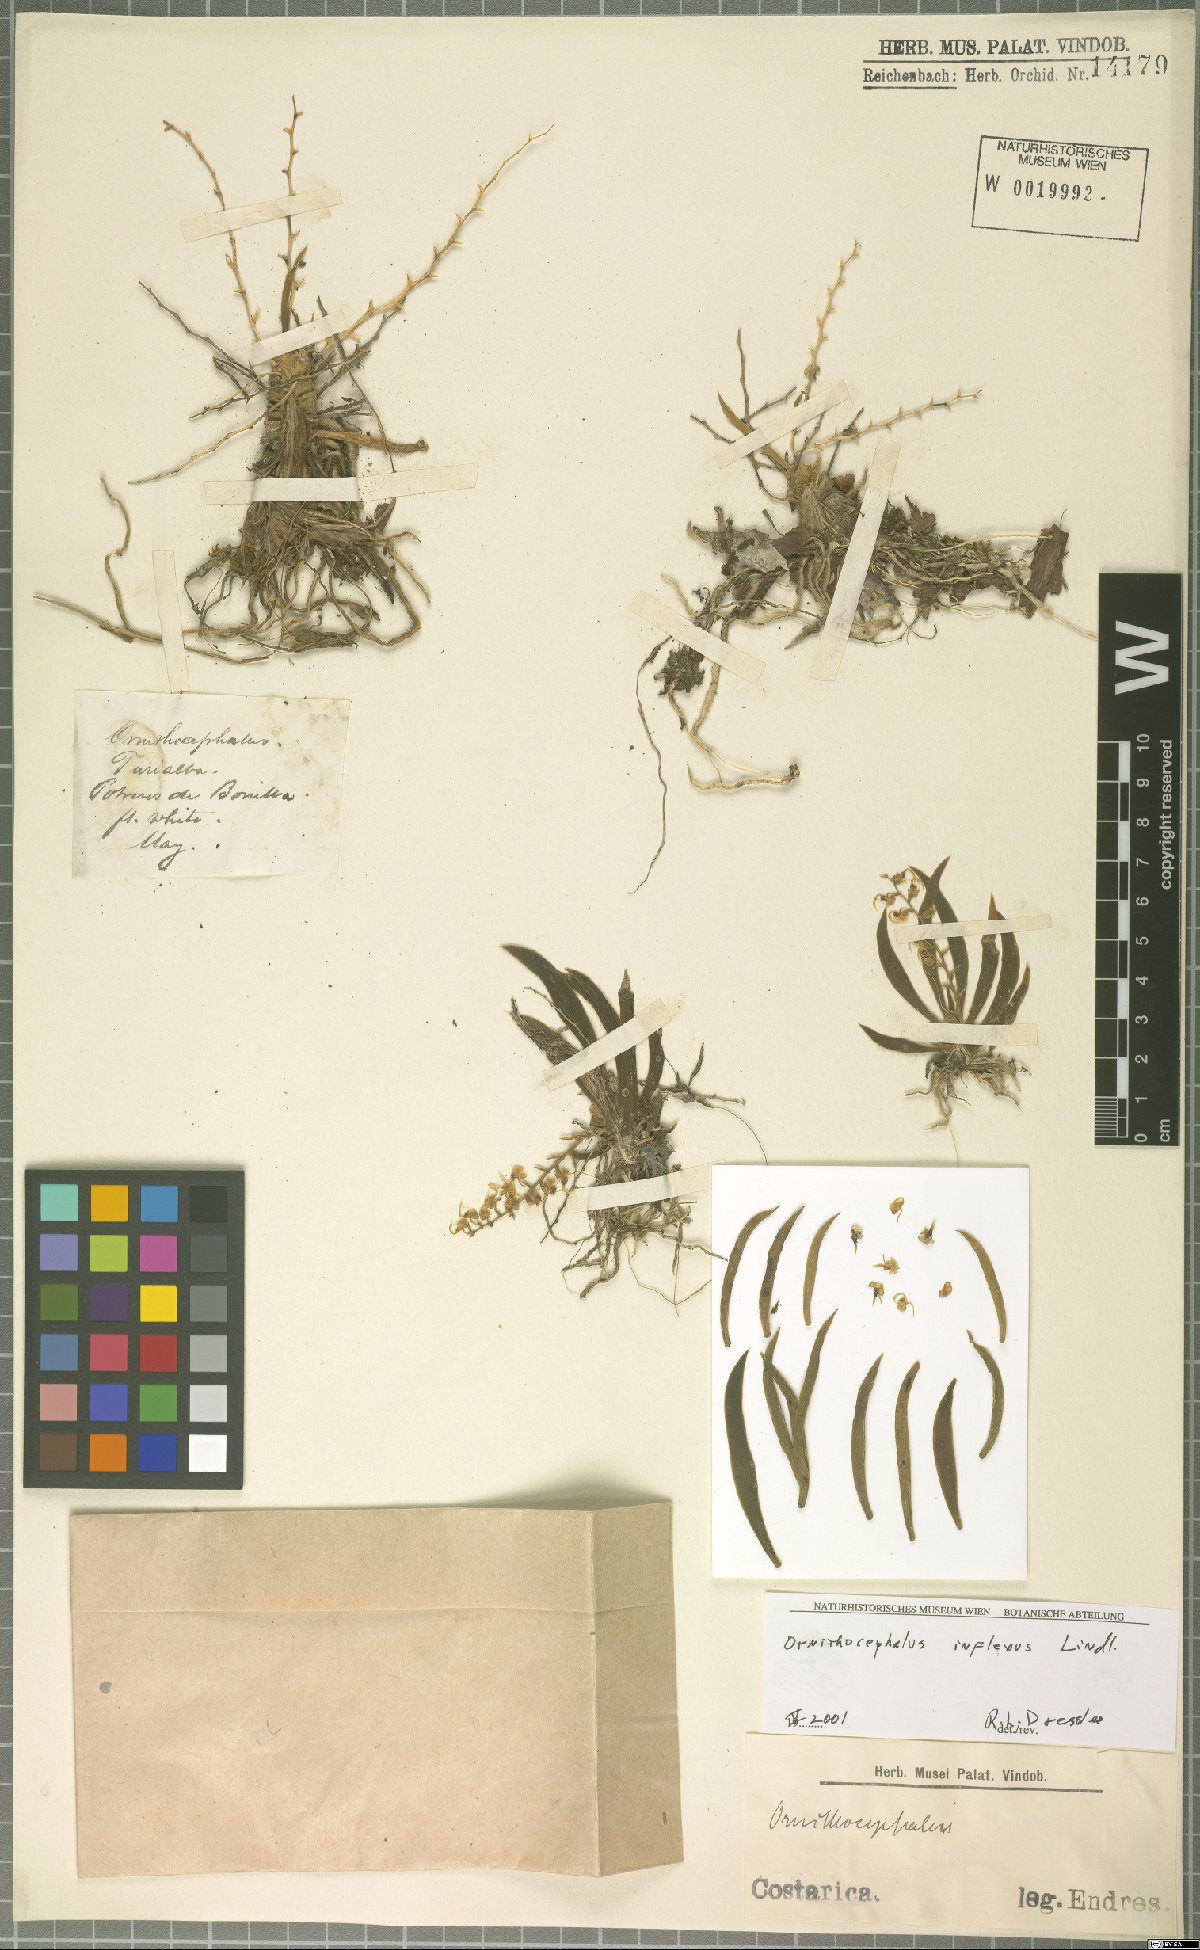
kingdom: Plantae
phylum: Tracheophyta
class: Liliopsida
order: Asparagales
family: Orchidaceae
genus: Ornithocephalus
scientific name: Ornithocephalus inflexus
